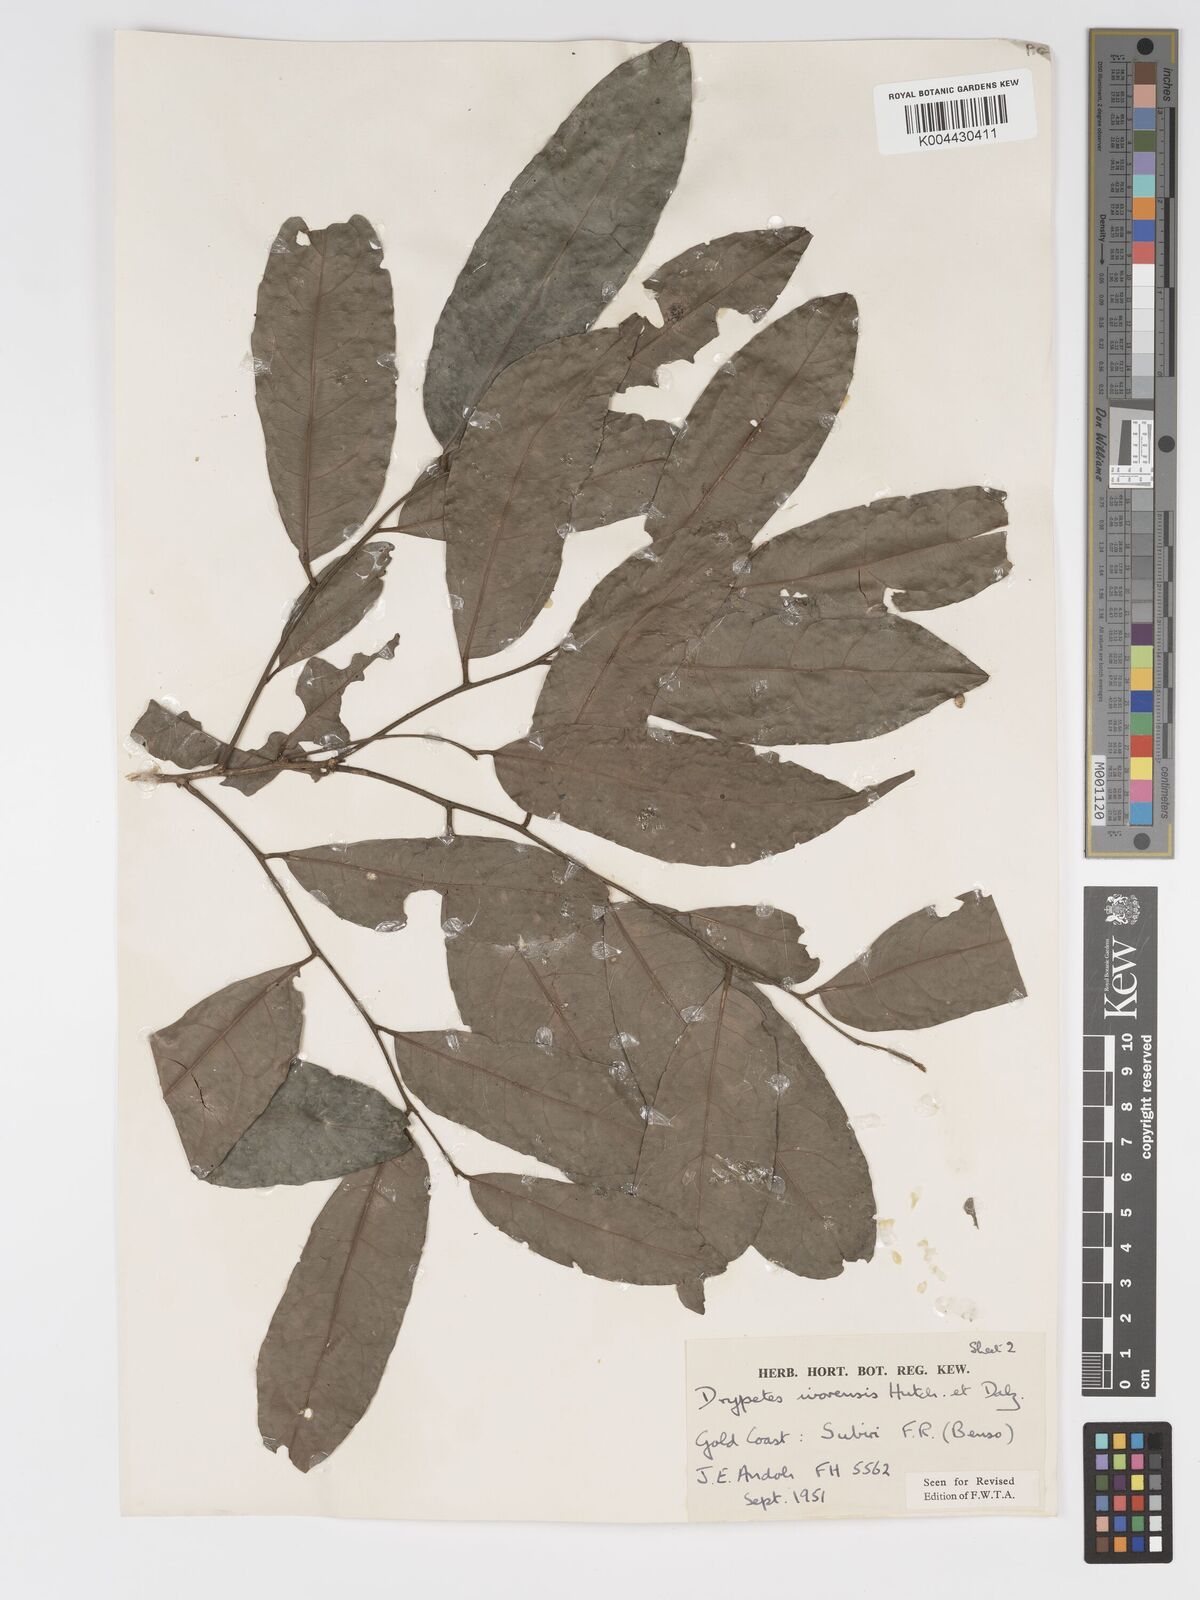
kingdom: Plantae
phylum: Tracheophyta
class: Magnoliopsida
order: Malpighiales
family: Putranjivaceae
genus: Drypetes
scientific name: Drypetes ivorensis
